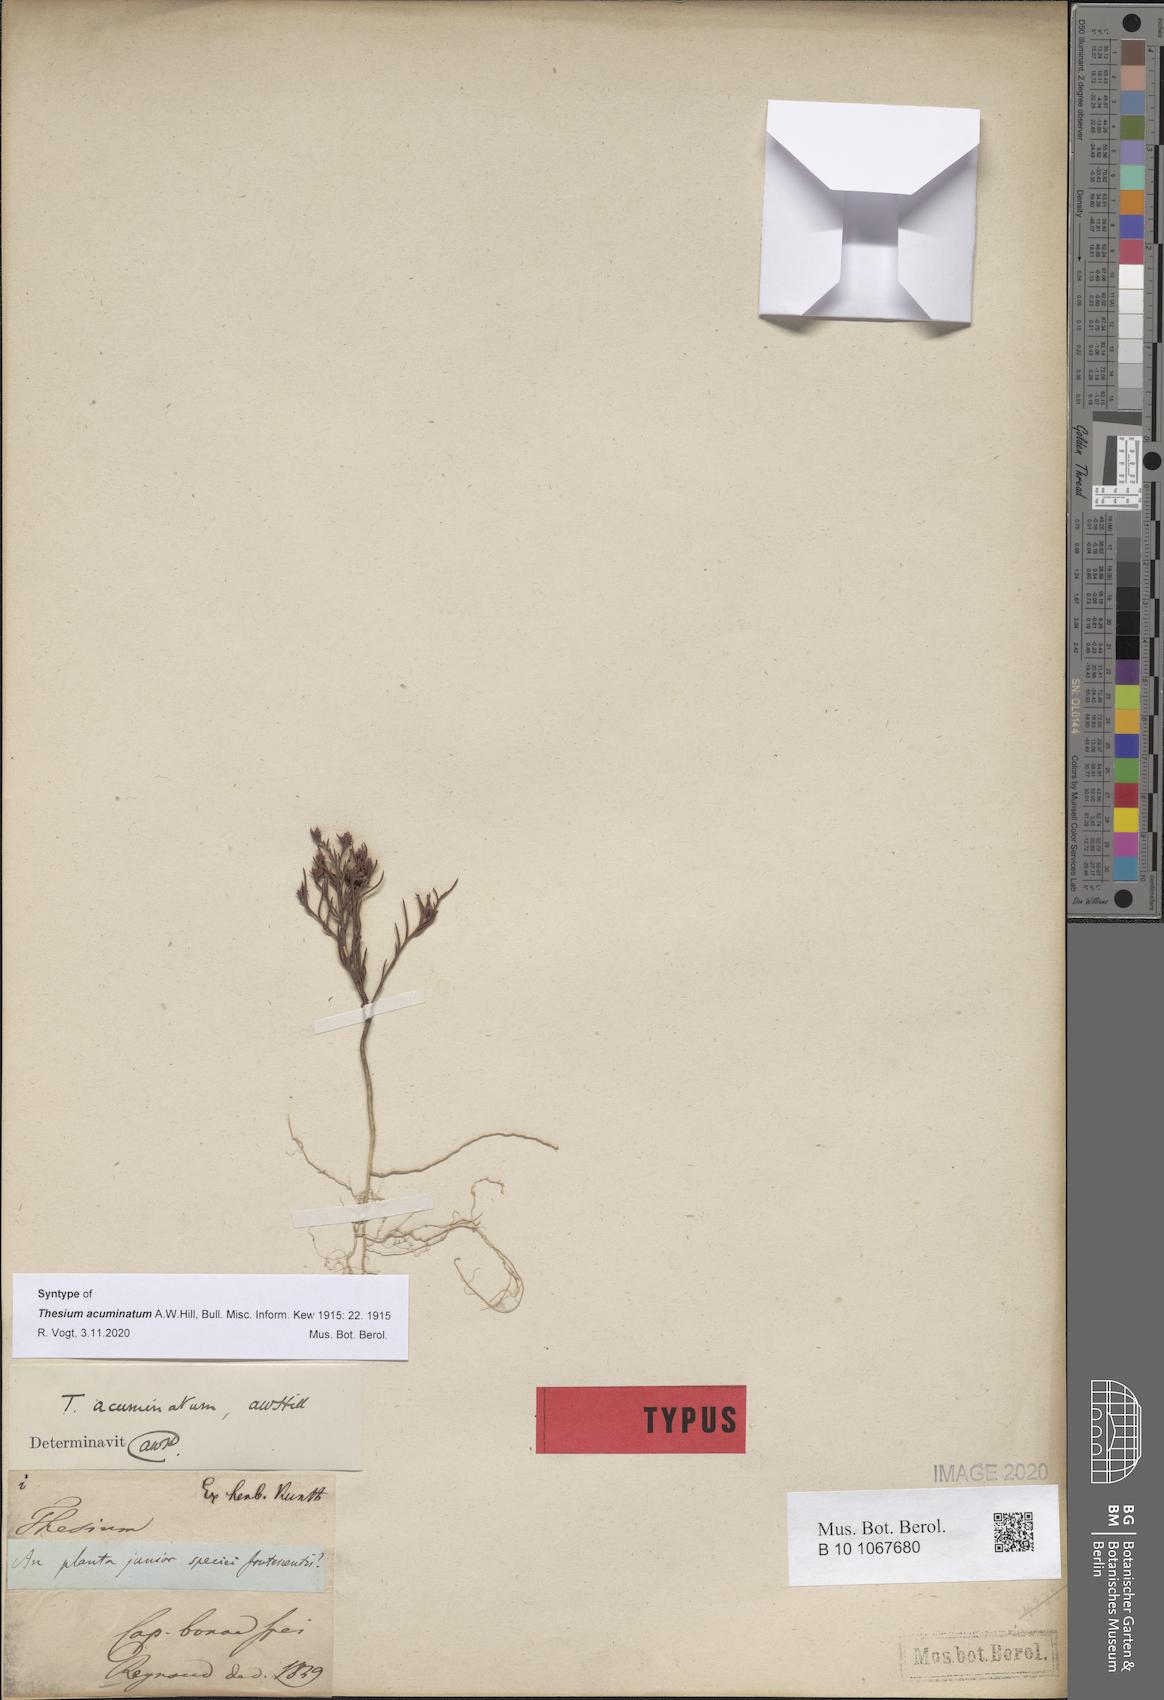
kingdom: Plantae
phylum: Tracheophyta
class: Magnoliopsida
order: Santalales
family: Thesiaceae
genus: Thesium
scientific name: Thesium acuminatum
